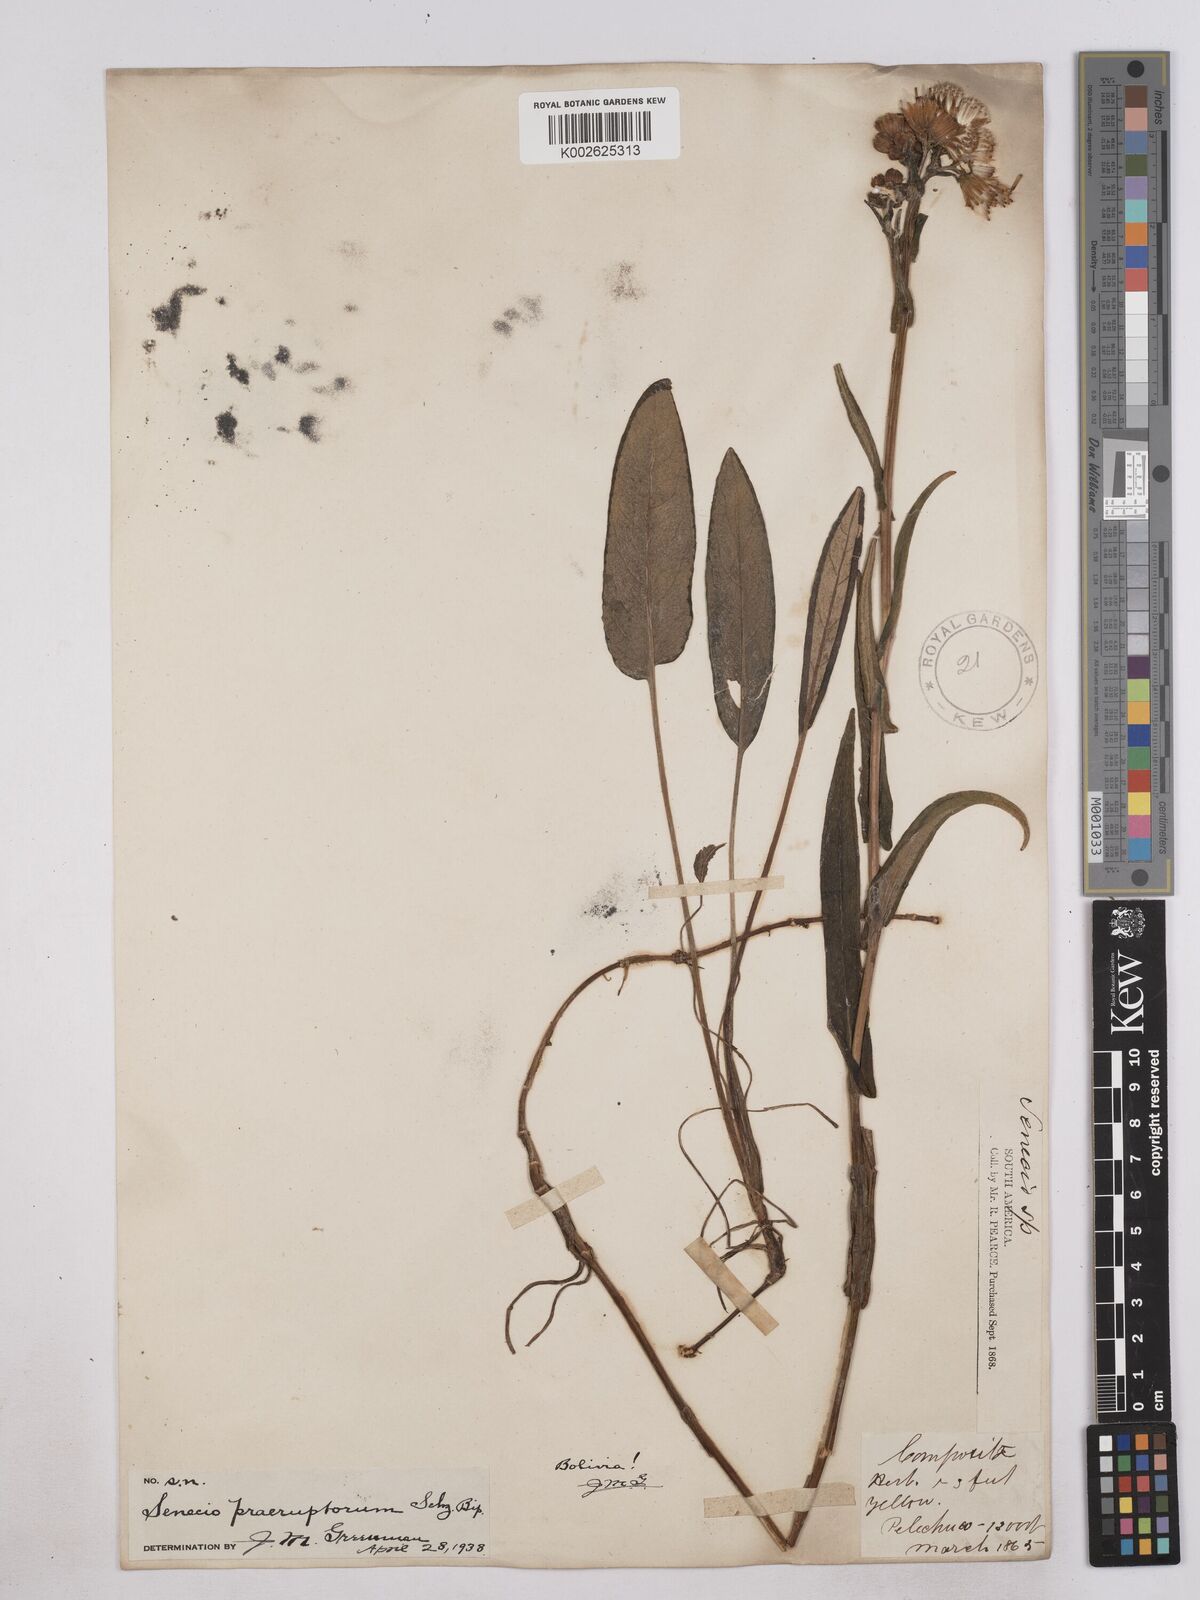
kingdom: Plantae
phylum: Tracheophyta
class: Magnoliopsida
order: Asterales
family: Asteraceae
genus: Senecio
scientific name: Senecio praeruptorum
